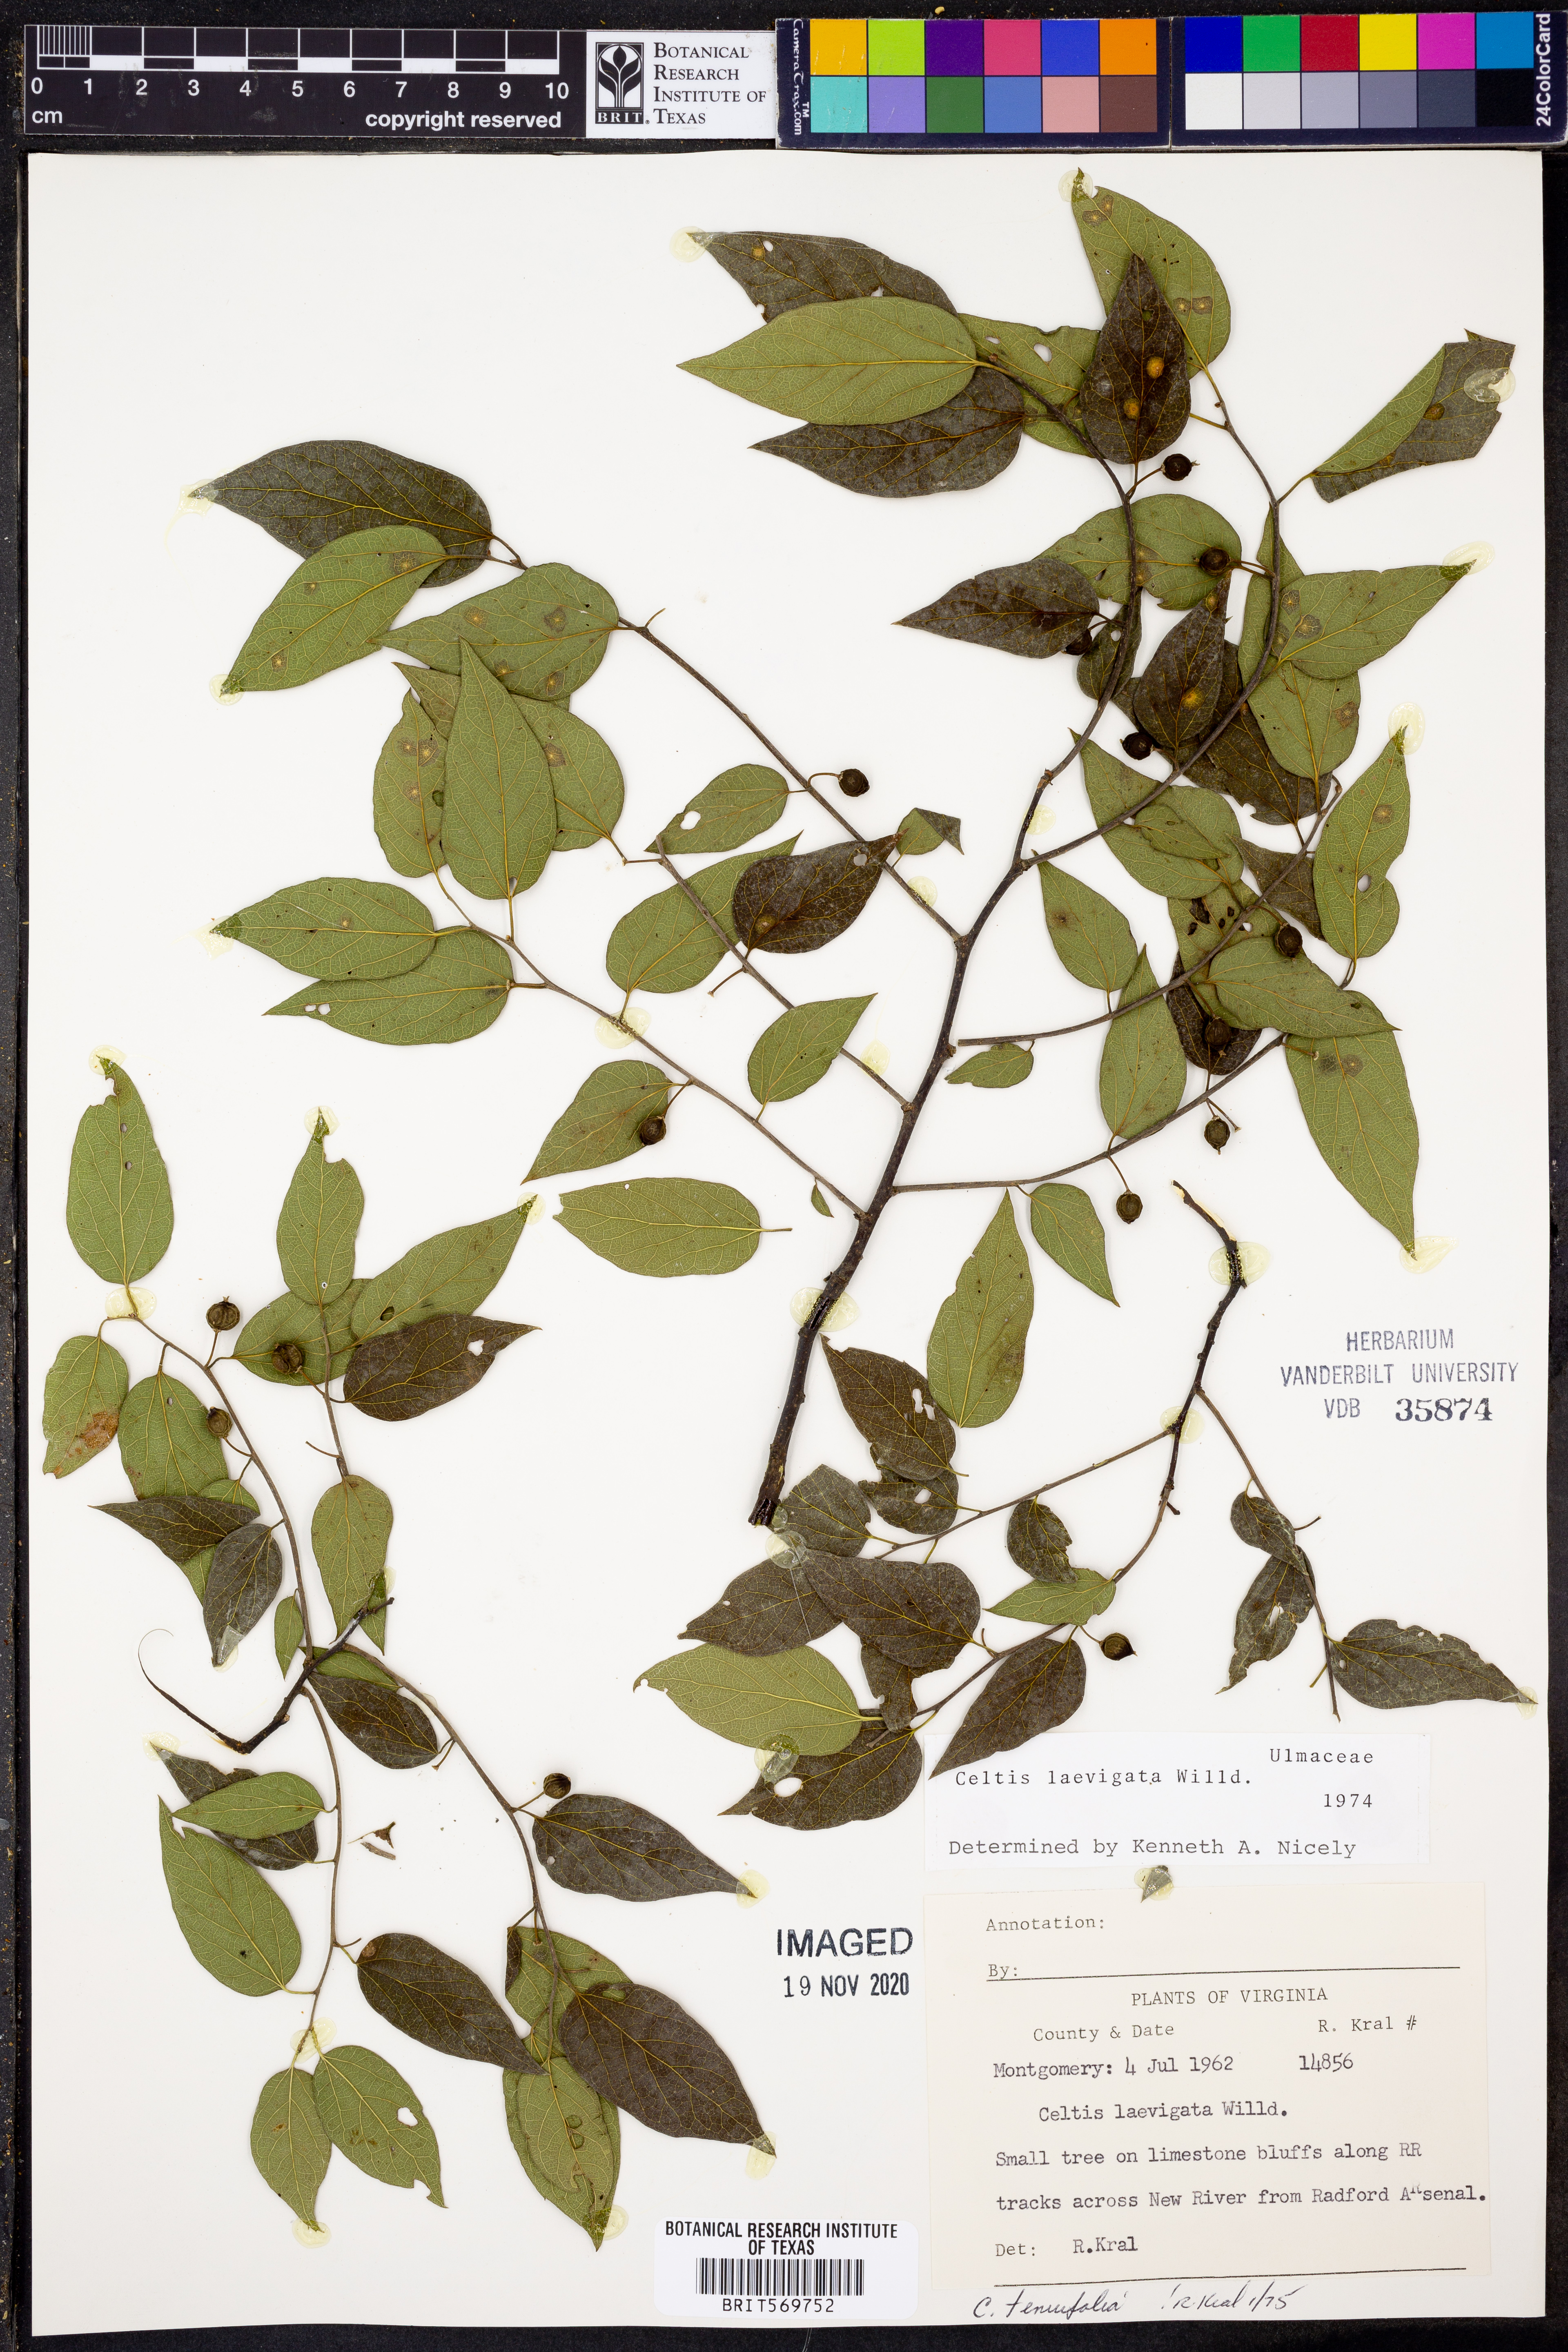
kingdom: Plantae
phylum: Tracheophyta
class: Magnoliopsida
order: Rosales
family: Cannabaceae
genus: Celtis
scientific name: Celtis laevigata
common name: Sugarberry
